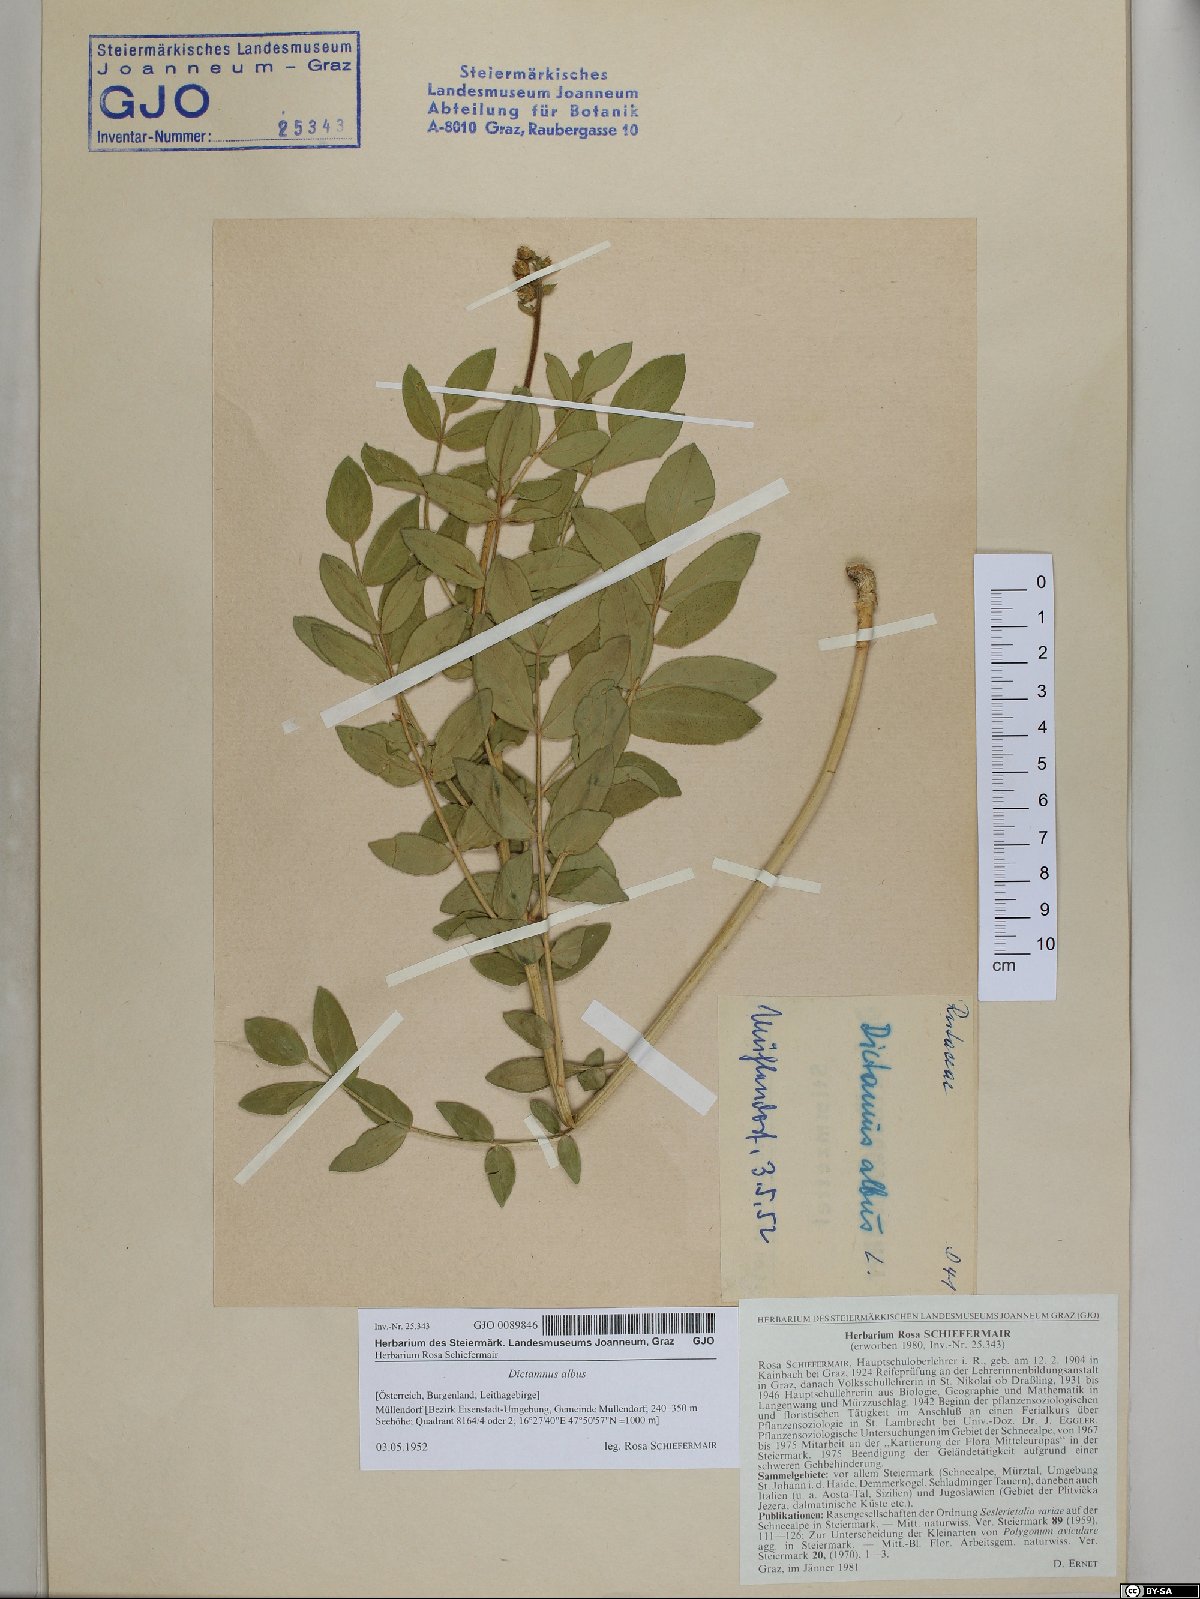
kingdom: Plantae
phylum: Tracheophyta
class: Magnoliopsida
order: Sapindales
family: Rutaceae
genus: Dictamnus
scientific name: Dictamnus albus
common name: Gasplant
